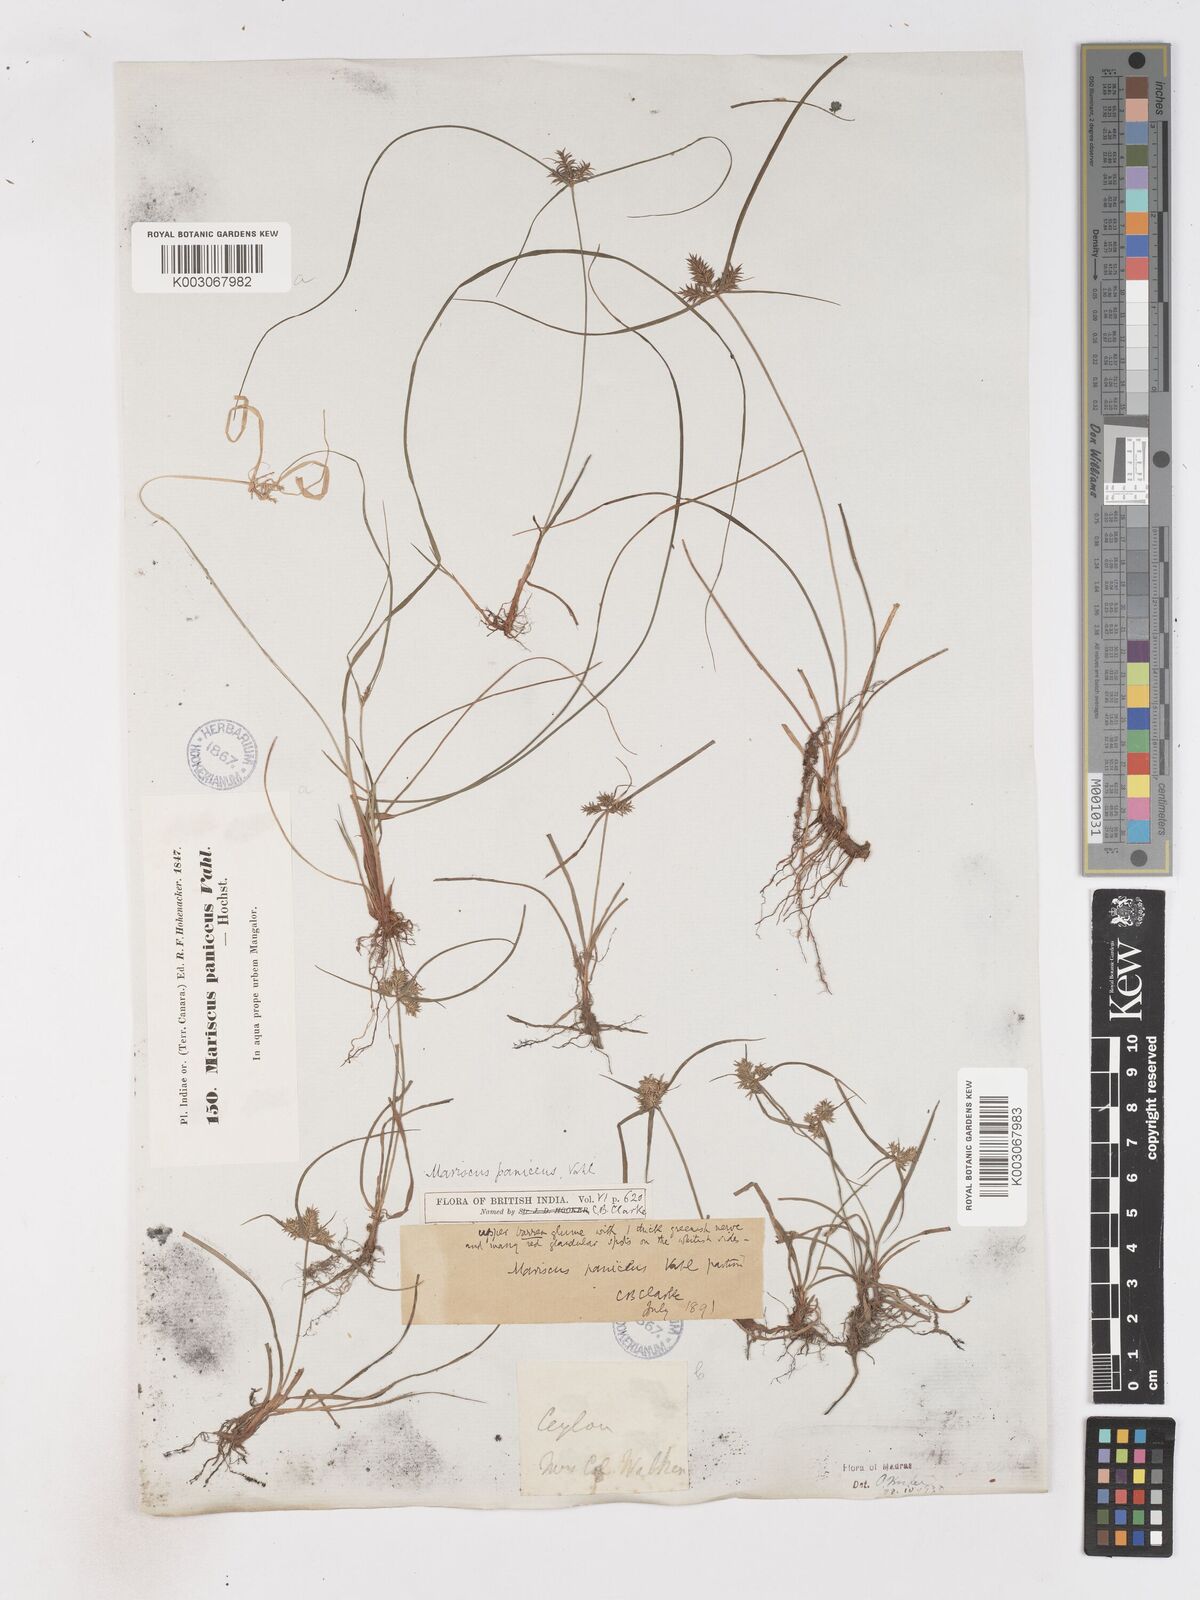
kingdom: Plantae
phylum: Tracheophyta
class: Liliopsida
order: Poales
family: Cyperaceae
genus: Cyperus
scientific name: Cyperus paniceus
